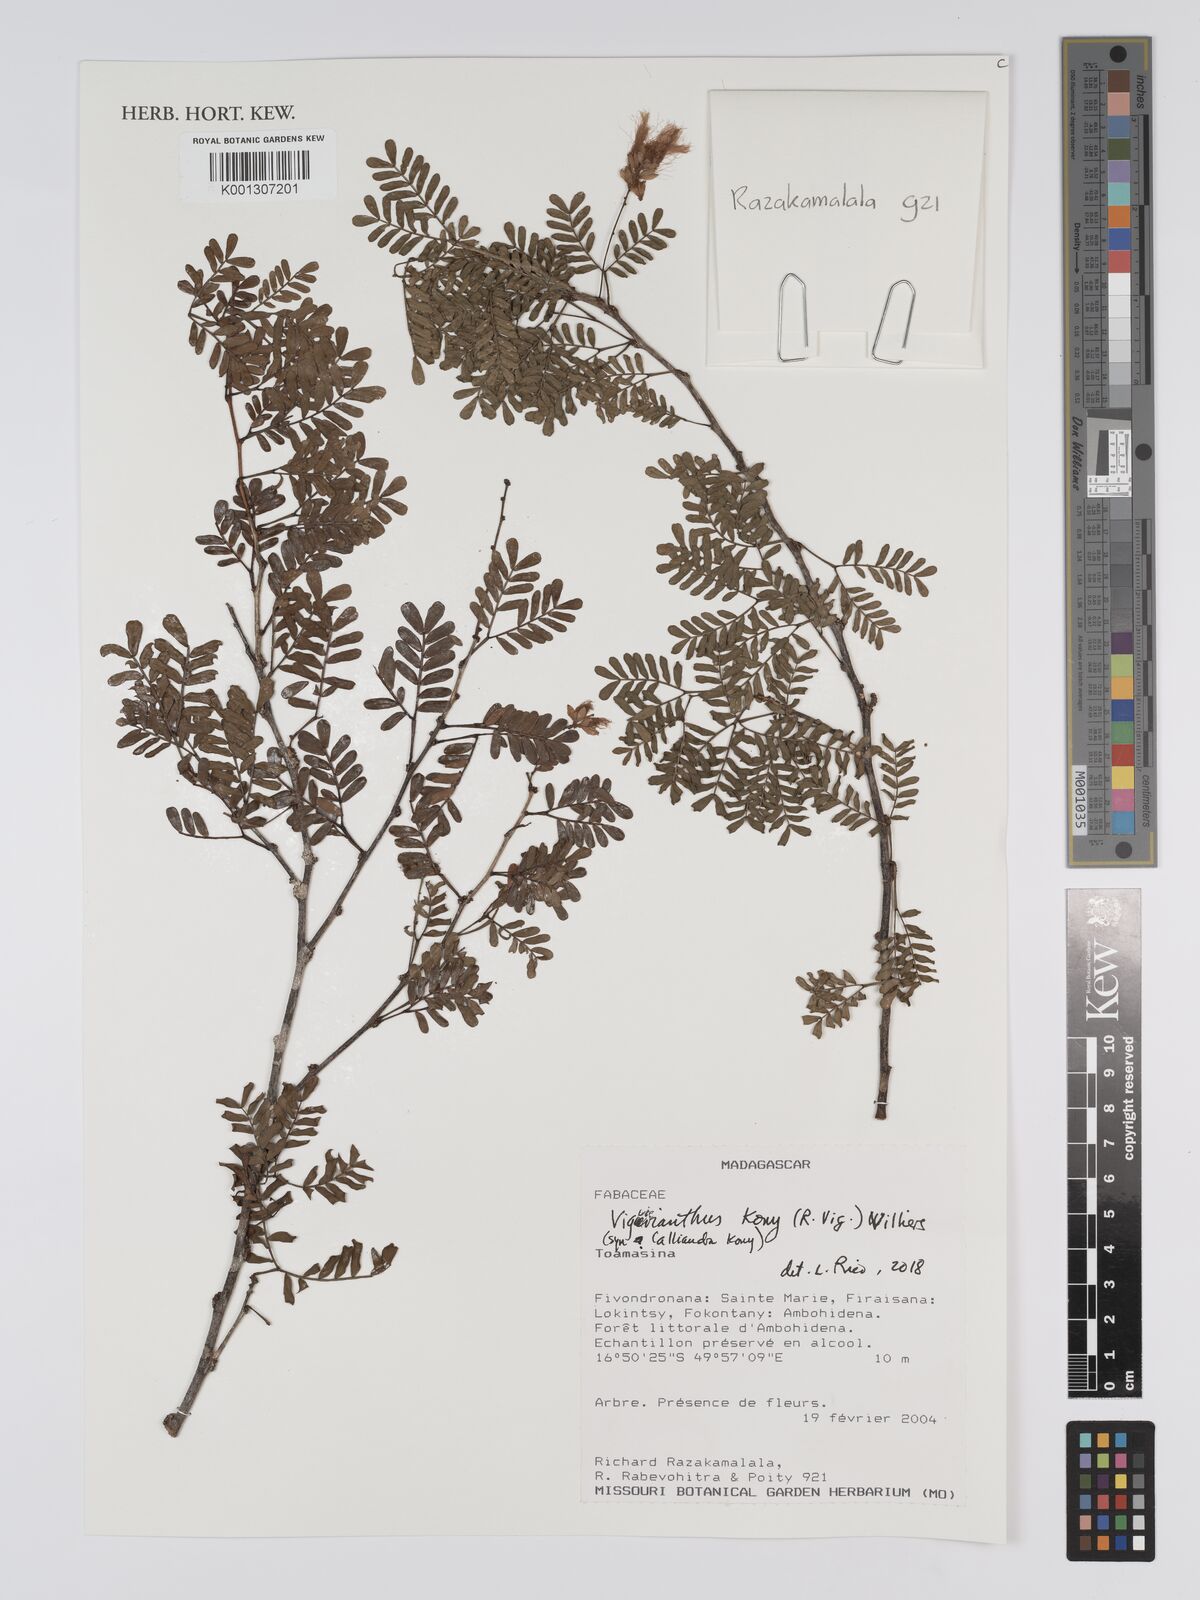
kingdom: Plantae
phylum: Tracheophyta
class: Magnoliopsida
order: Fabales
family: Fabaceae
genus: Viguieranthus
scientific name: Viguieranthus kony
